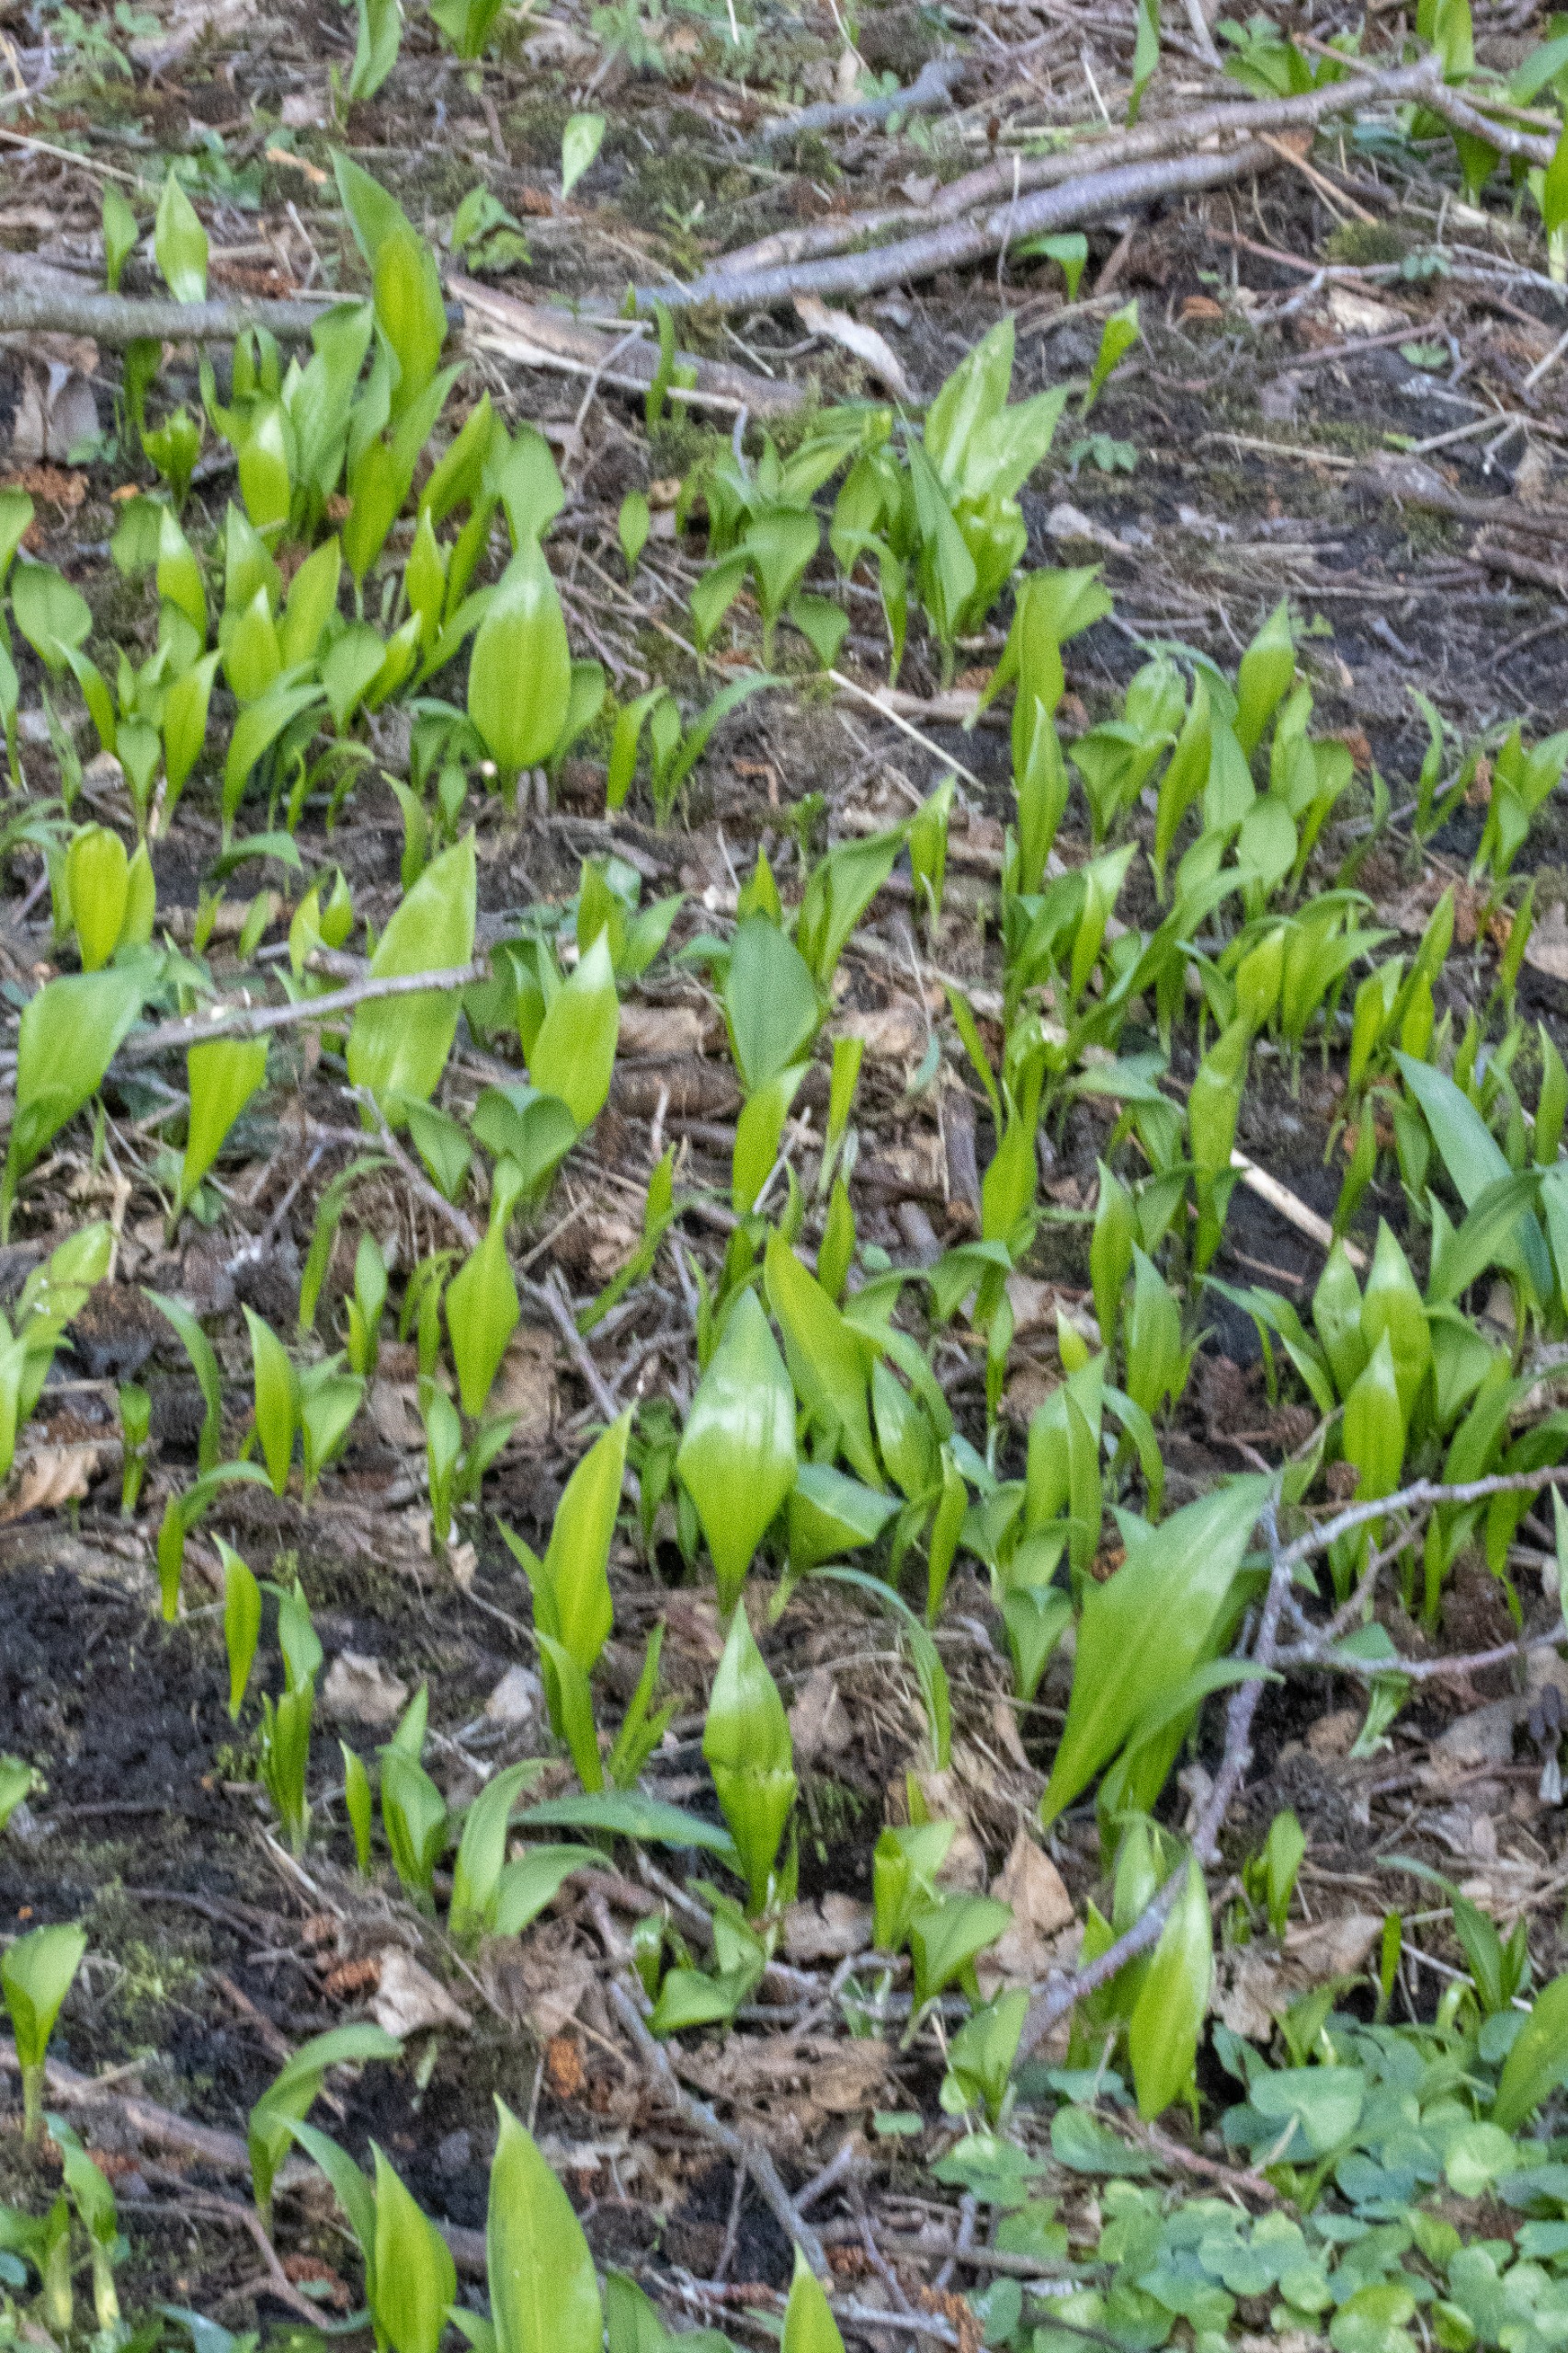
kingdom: Plantae
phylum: Tracheophyta
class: Liliopsida
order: Asparagales
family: Amaryllidaceae
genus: Allium
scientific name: Allium ursinum
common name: Rams-løg
